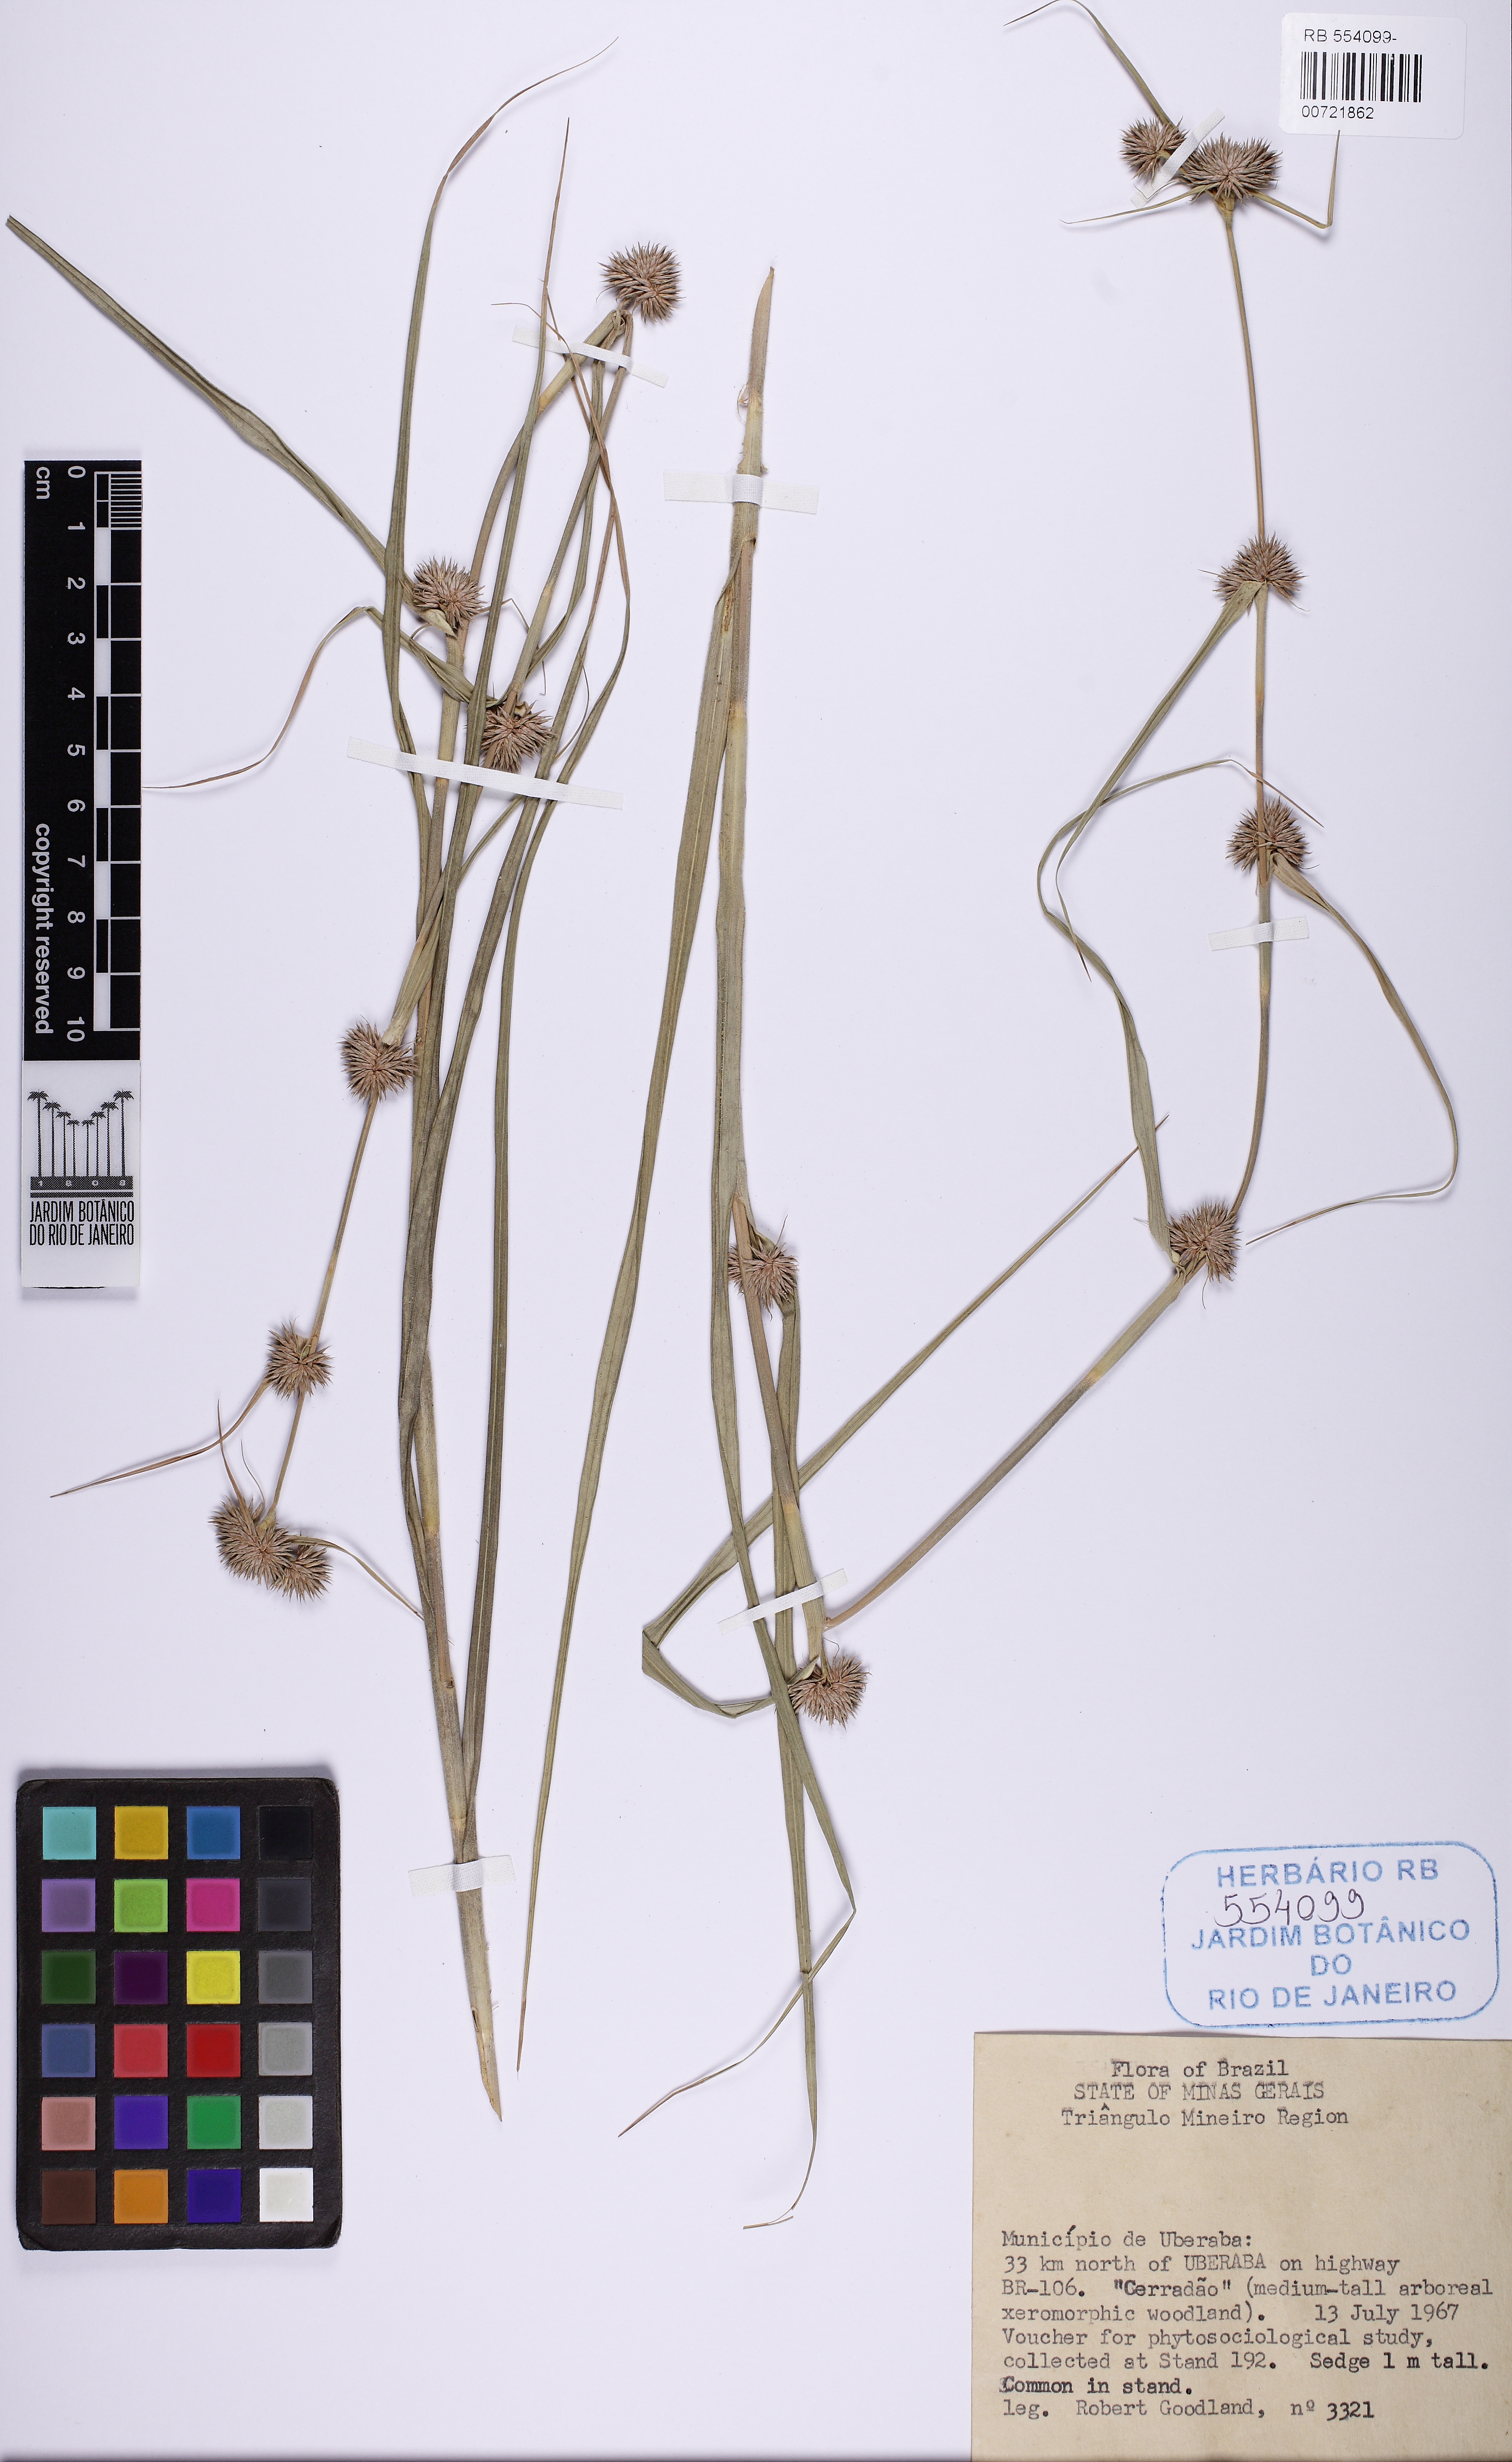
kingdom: Plantae
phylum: Tracheophyta
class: Liliopsida
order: Poales
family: Cyperaceae
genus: Rhynchospora
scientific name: Rhynchospora exaltata
